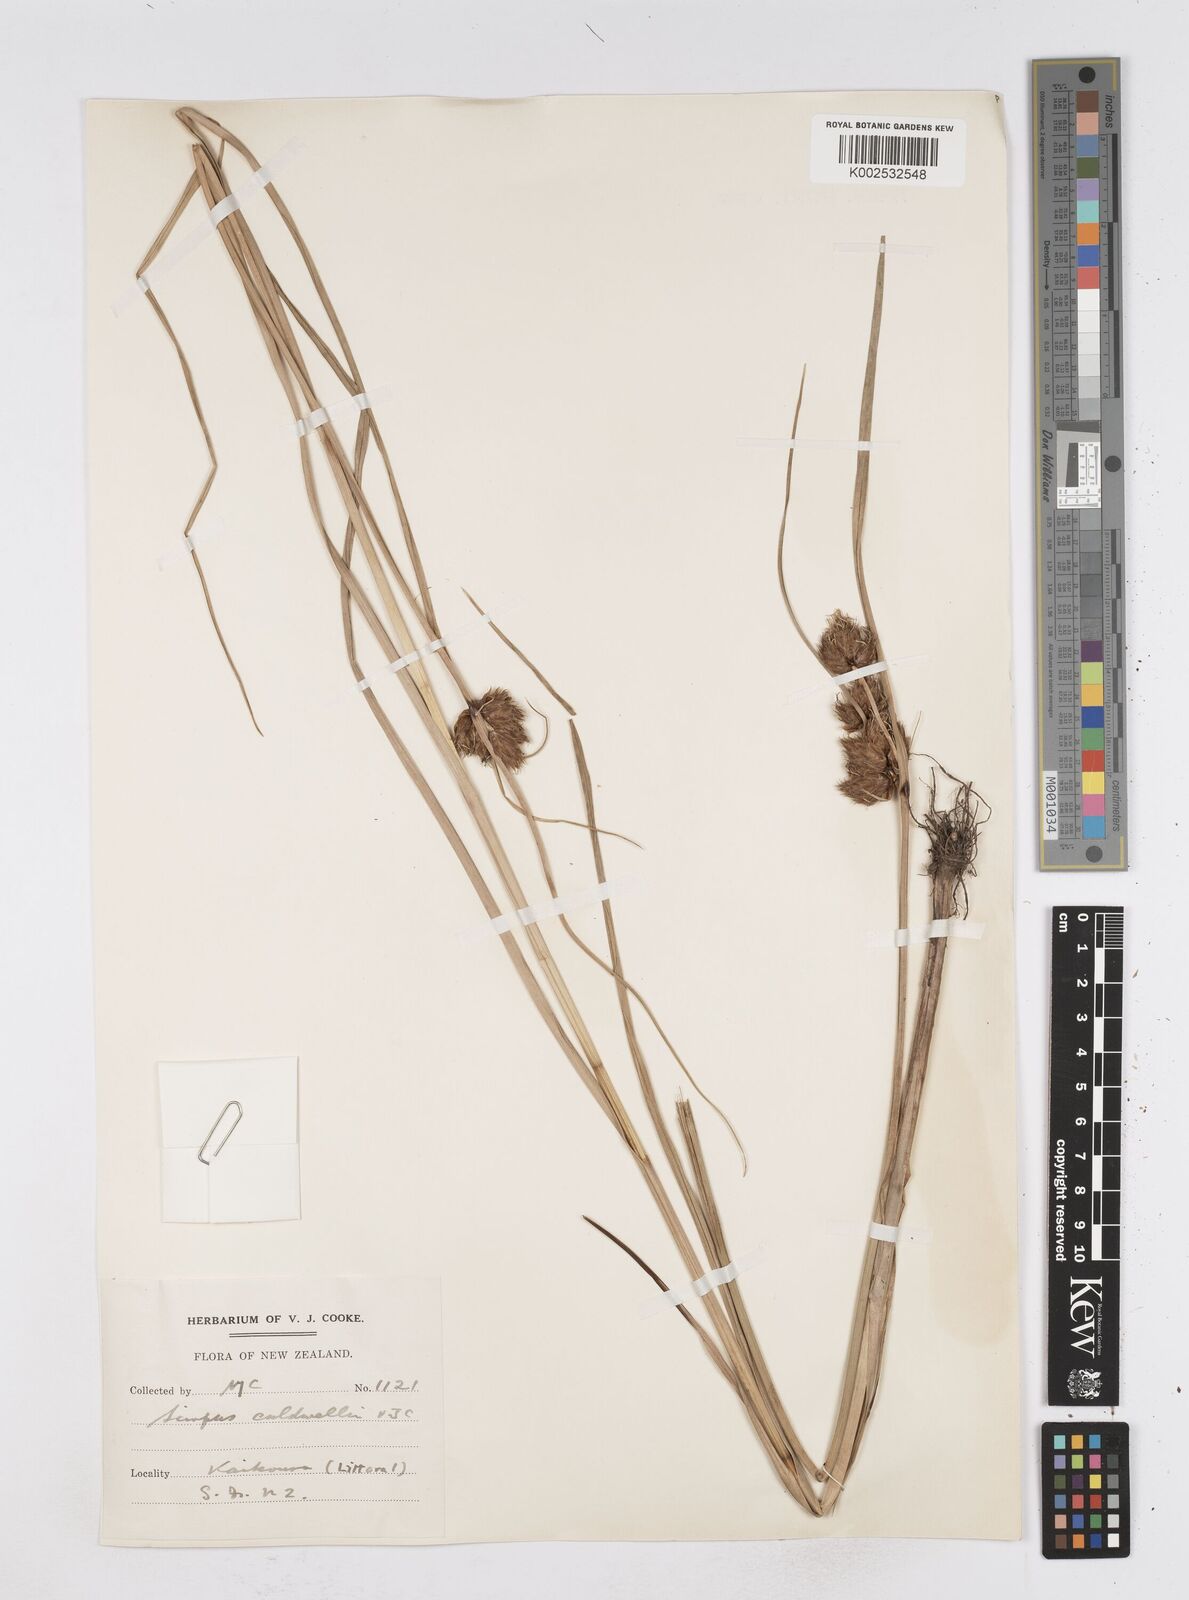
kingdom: Plantae
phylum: Tracheophyta
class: Liliopsida
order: Poales
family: Cyperaceae
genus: Bolboschoenus
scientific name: Bolboschoenus caldwellii
